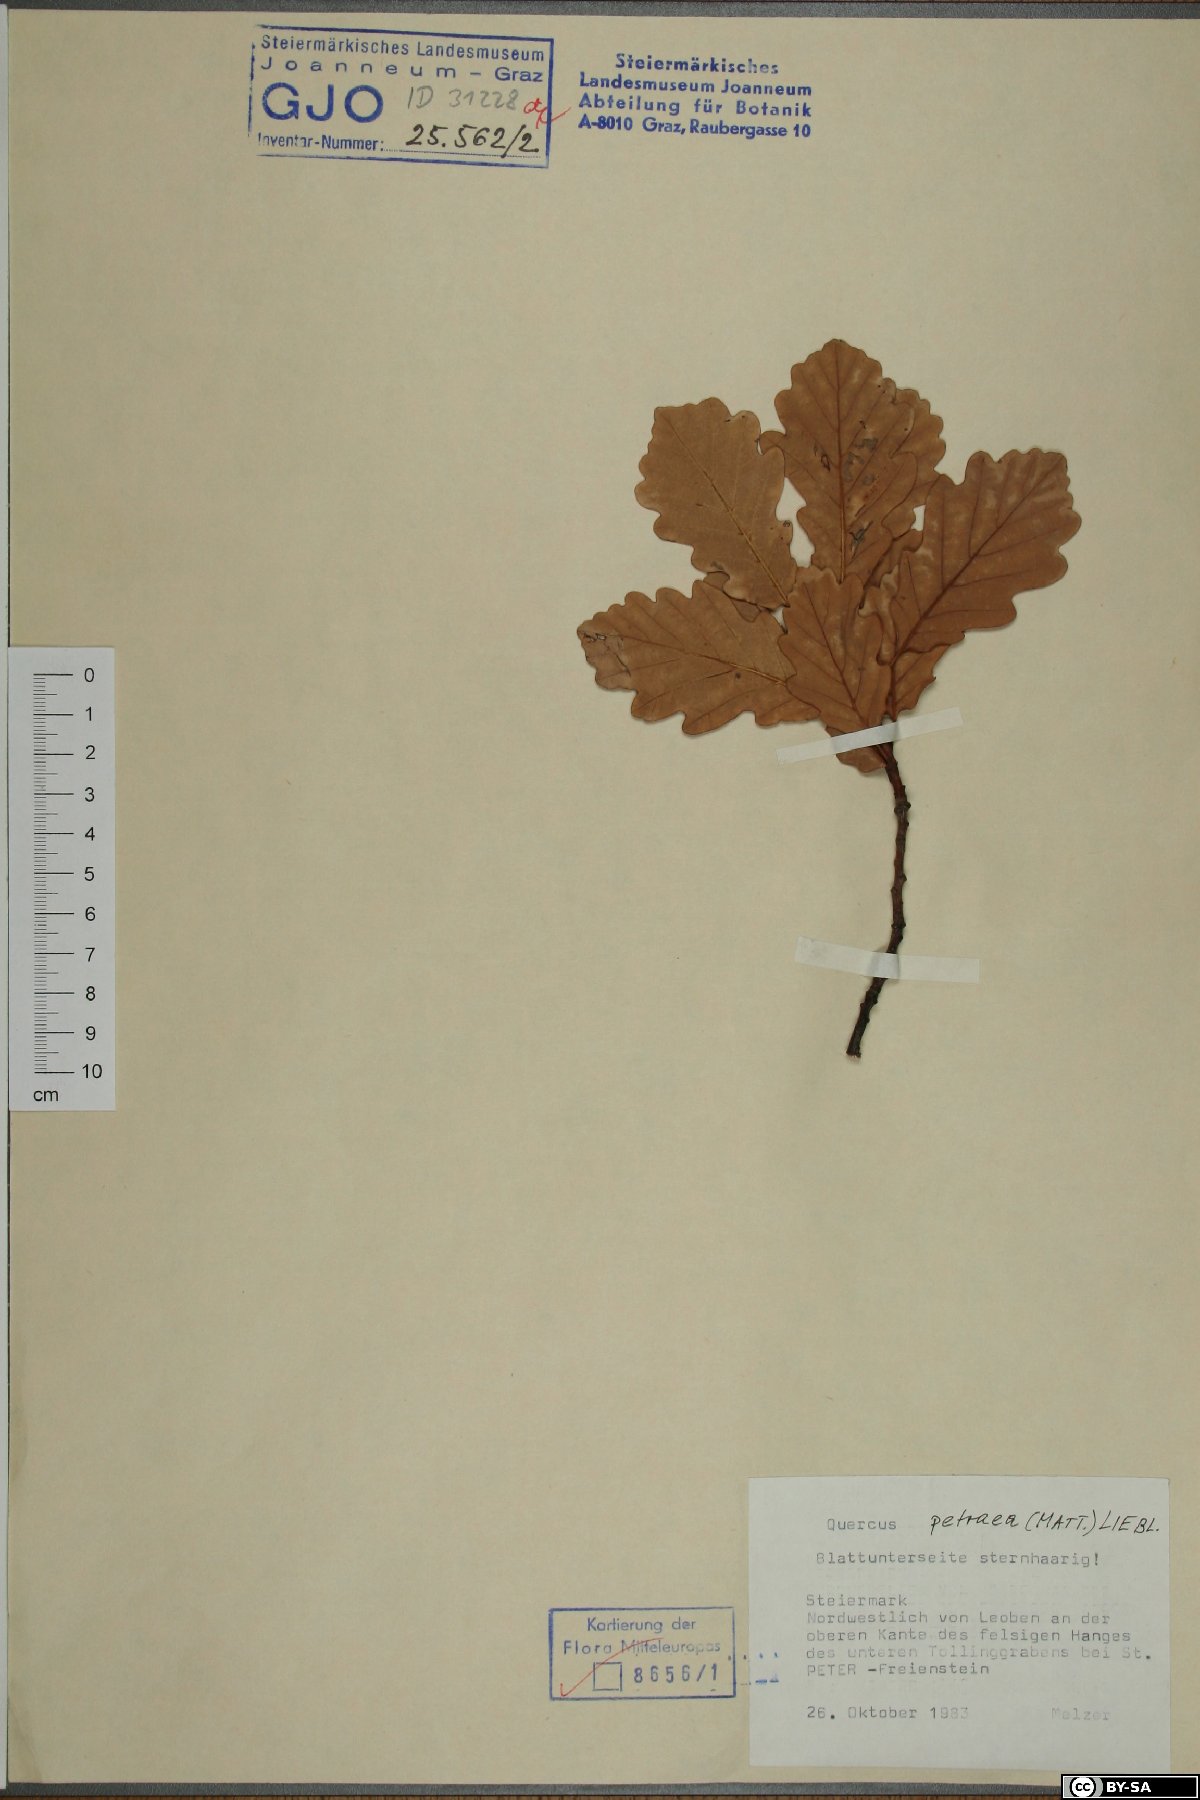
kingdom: Plantae
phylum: Tracheophyta
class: Magnoliopsida
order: Fagales
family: Fagaceae
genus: Quercus
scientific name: Quercus petraea
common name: Sessile oak
